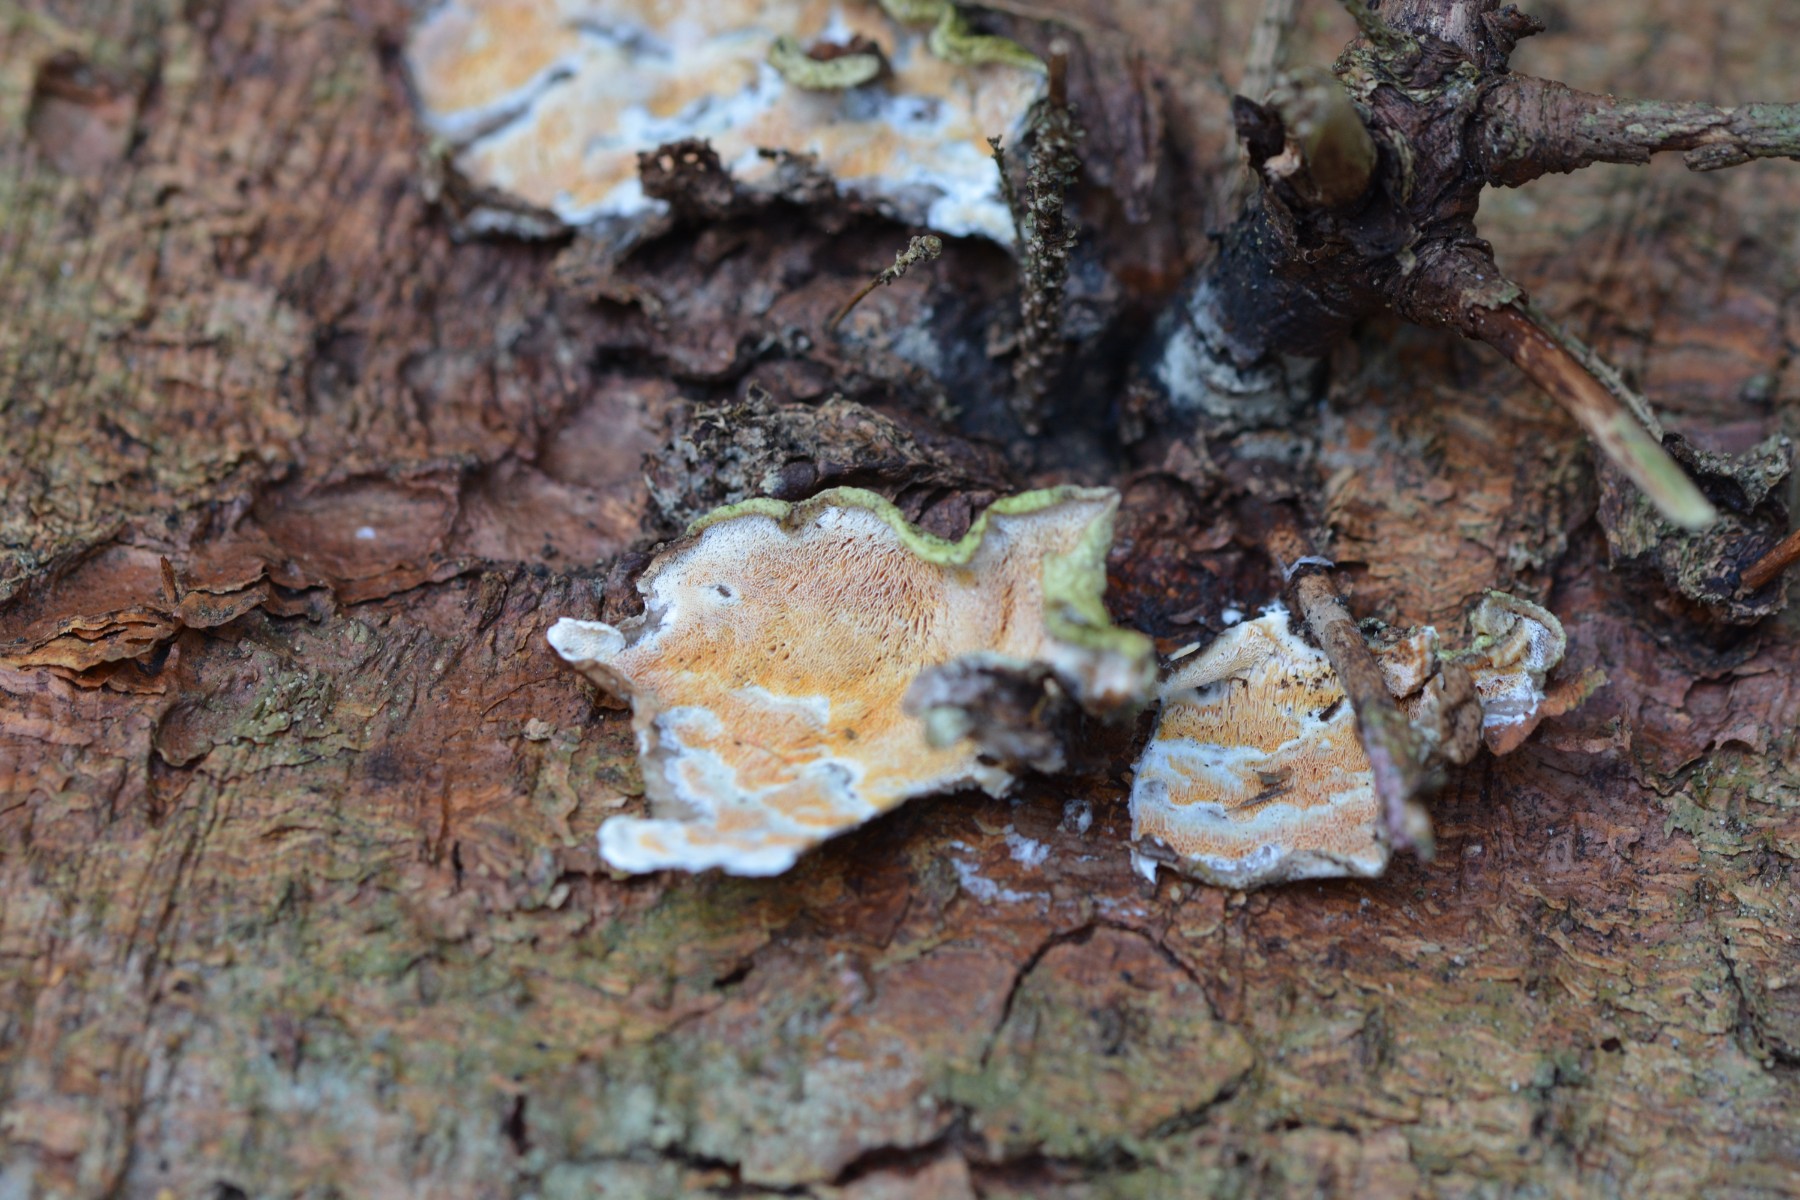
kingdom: Fungi
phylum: Basidiomycota
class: Agaricomycetes
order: Polyporales
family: Incrustoporiaceae
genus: Skeletocutis
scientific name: Skeletocutis amorpha
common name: orange krystalporesvamp
